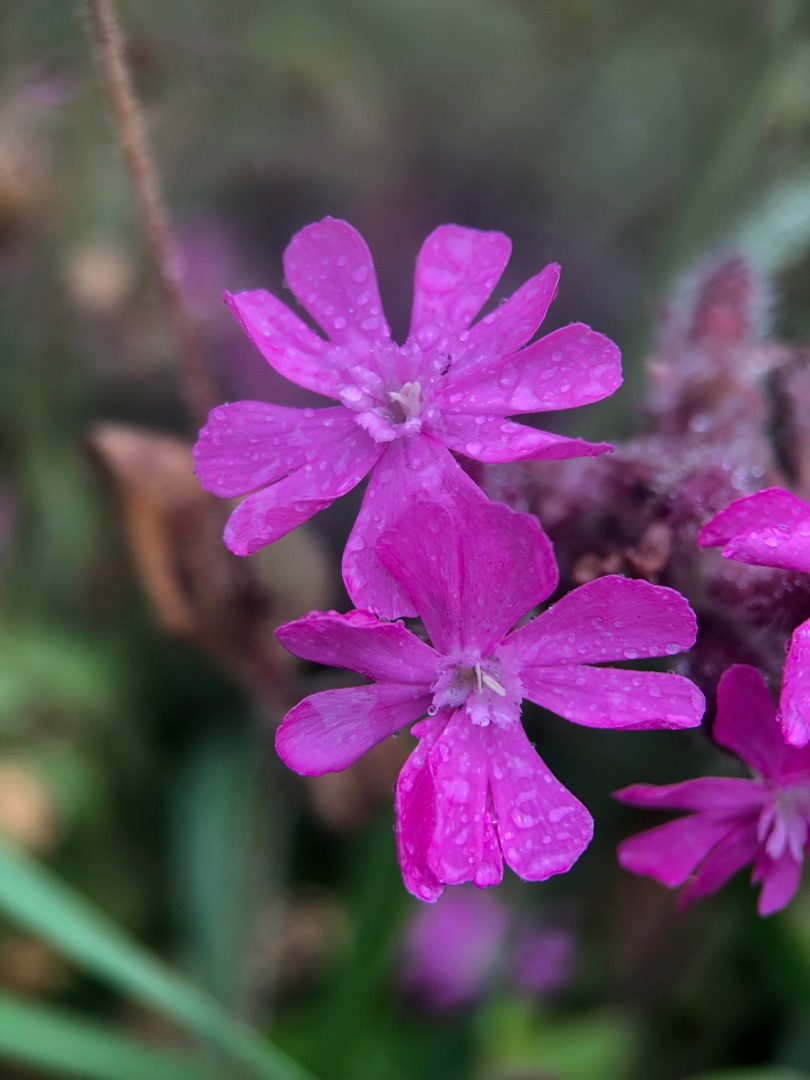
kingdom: Plantae
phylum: Tracheophyta
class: Magnoliopsida
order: Caryophyllales
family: Caryophyllaceae
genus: Silene
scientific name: Silene dioica
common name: Dagpragtstjerne
